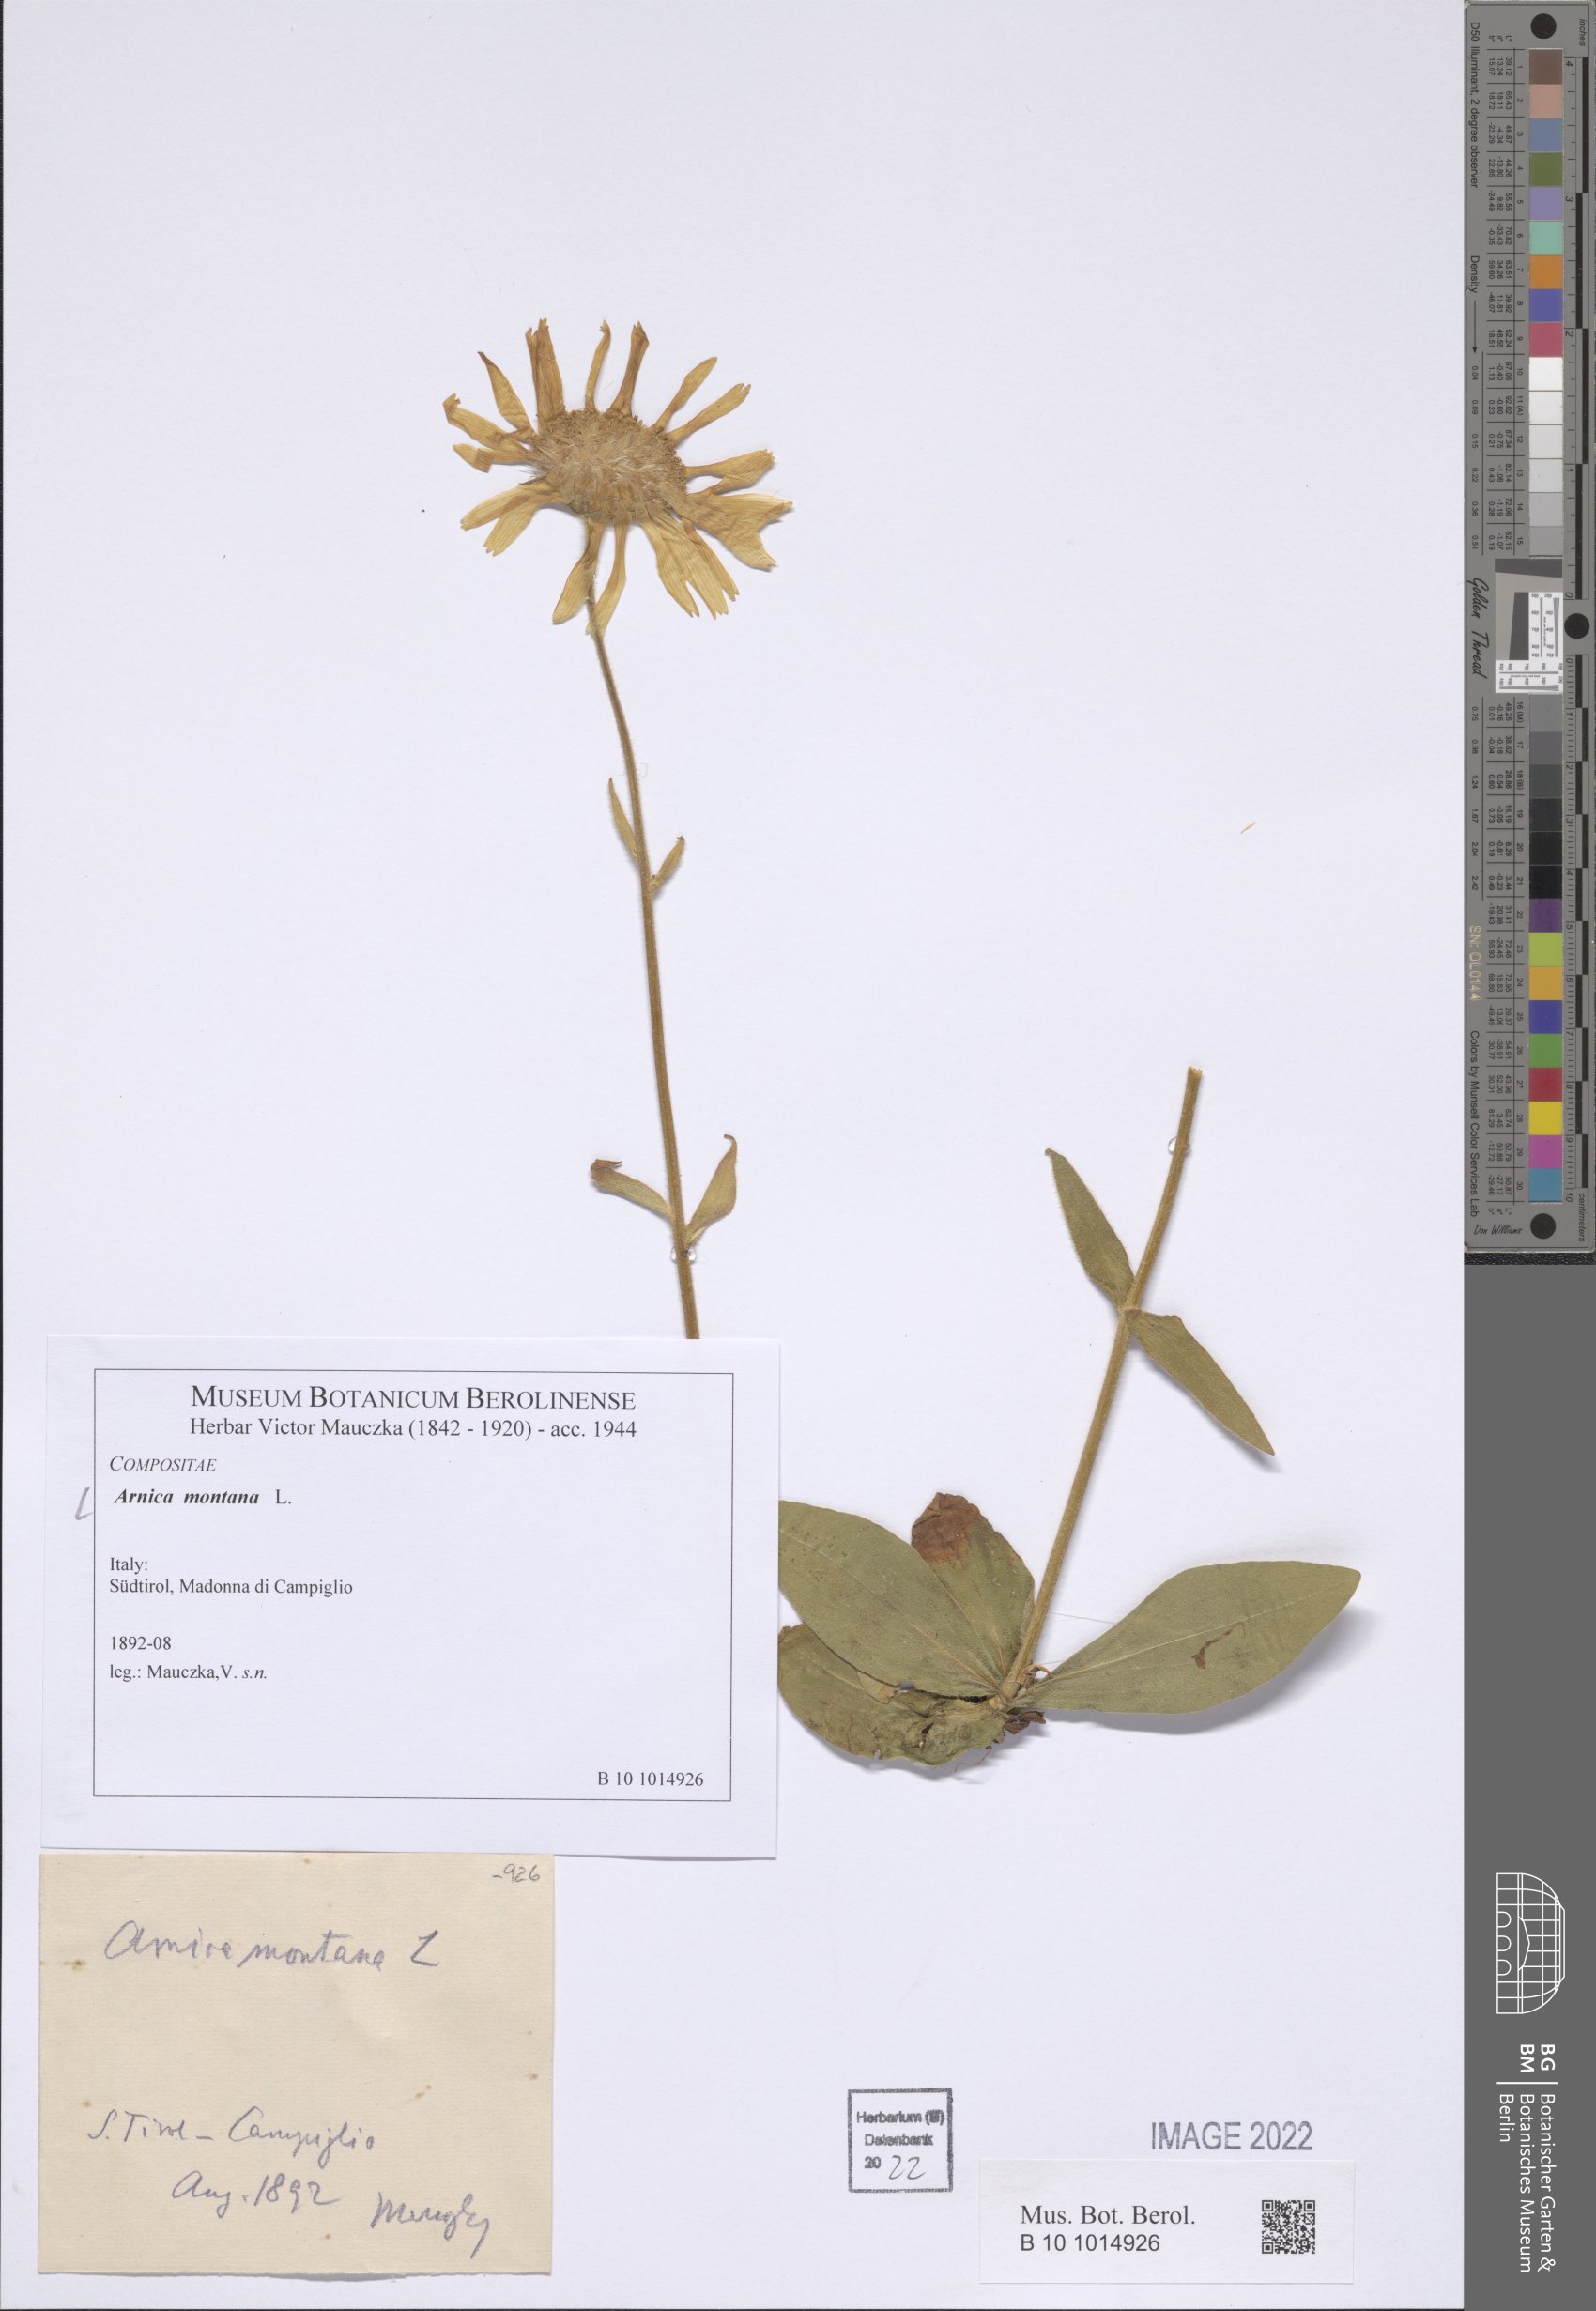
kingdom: Plantae
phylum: Tracheophyta
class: Magnoliopsida
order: Asterales
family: Asteraceae
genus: Arnica
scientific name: Arnica montana
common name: Leopard's bane
